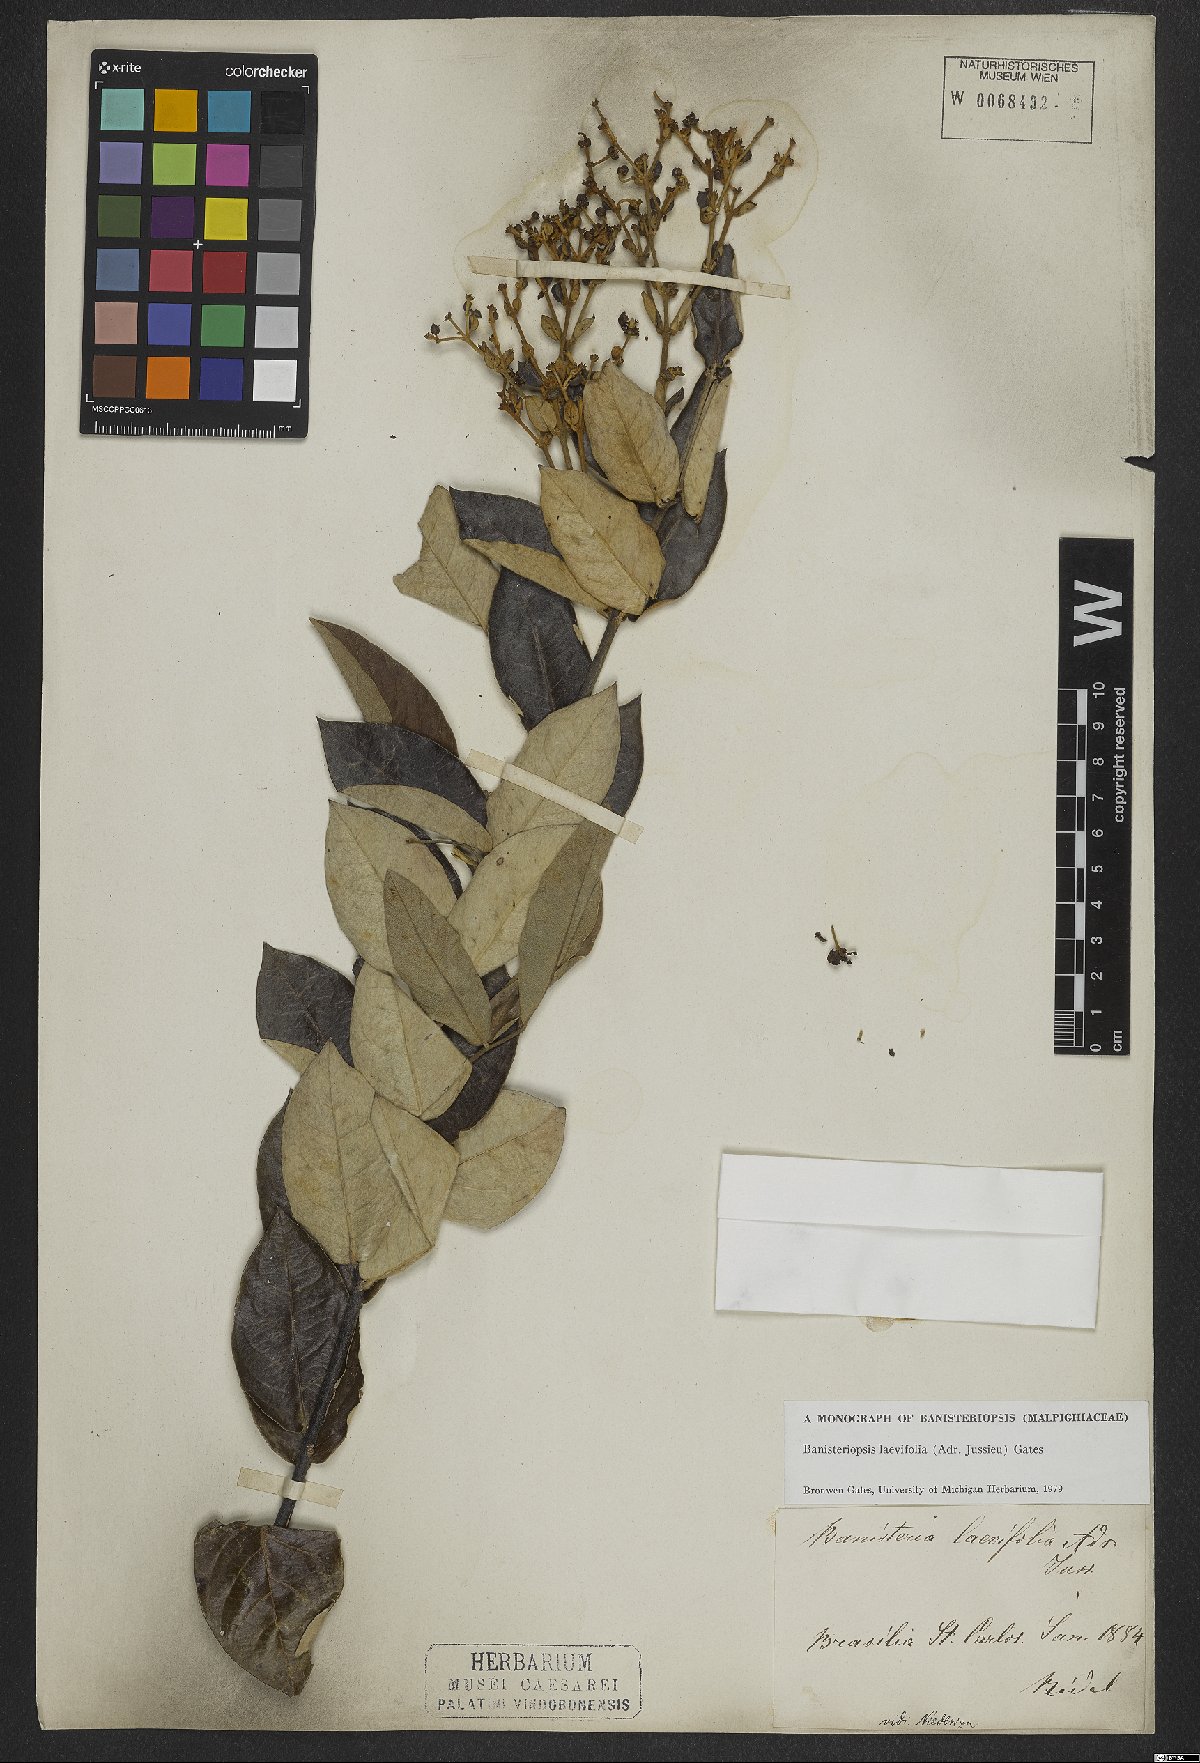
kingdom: Plantae
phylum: Tracheophyta
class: Magnoliopsida
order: Malpighiales
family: Malpighiaceae
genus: Banisteriopsis
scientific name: Banisteriopsis laevifolia
